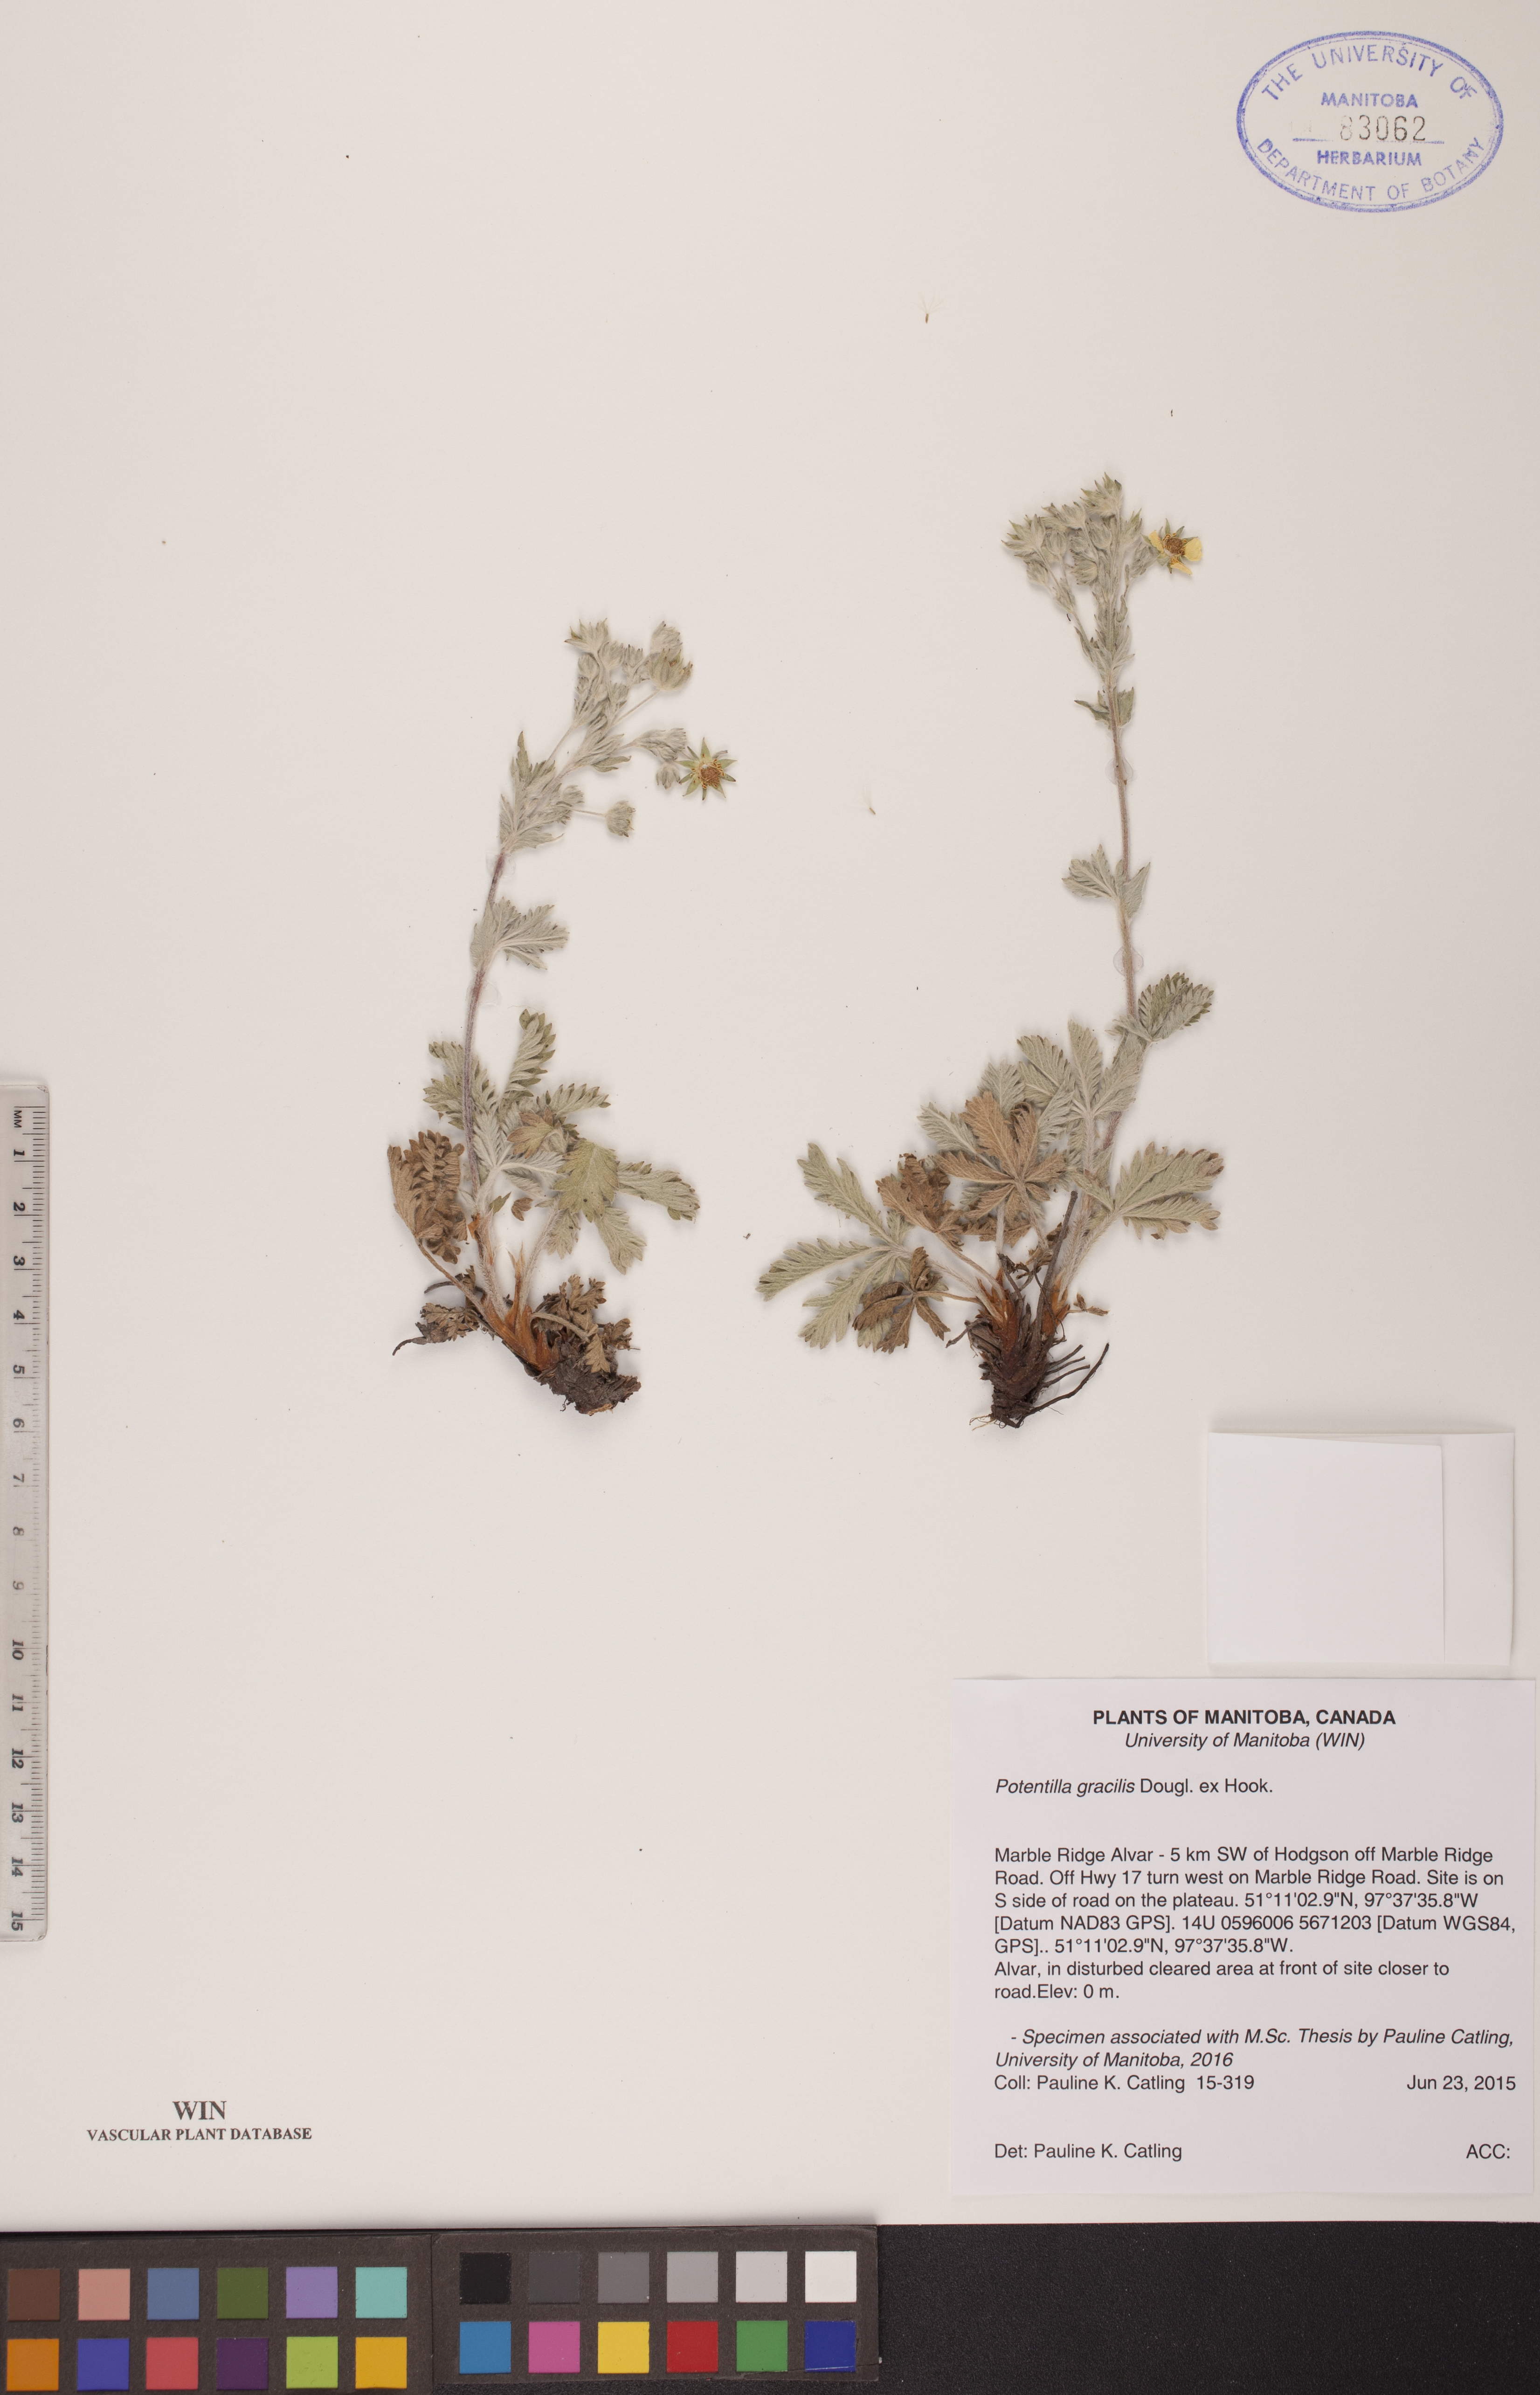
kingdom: Plantae
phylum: Tracheophyta
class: Magnoliopsida
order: Rosales
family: Rosaceae
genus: Potentilla
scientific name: Potentilla gracilis
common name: Graceful cinquefoil
